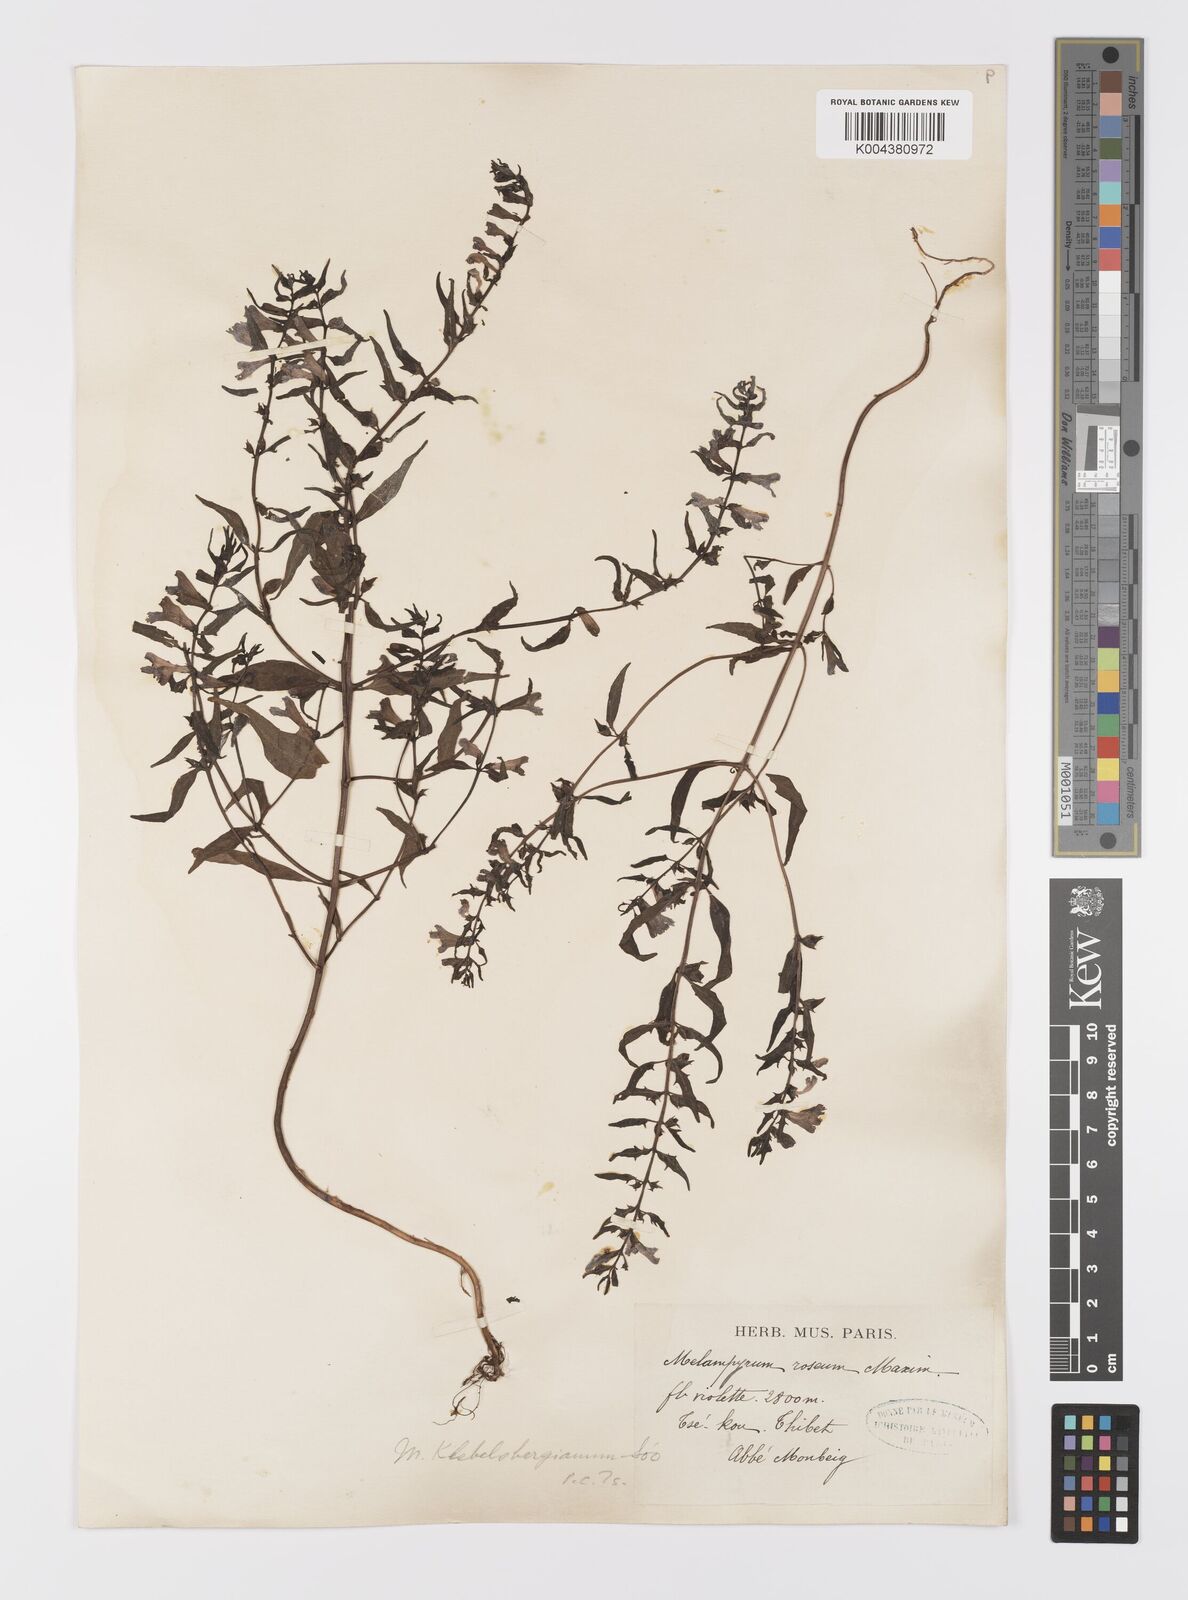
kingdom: Plantae
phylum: Tracheophyta
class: Magnoliopsida
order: Lamiales
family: Orobanchaceae
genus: Melampyrum
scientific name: Melampyrum chinense
